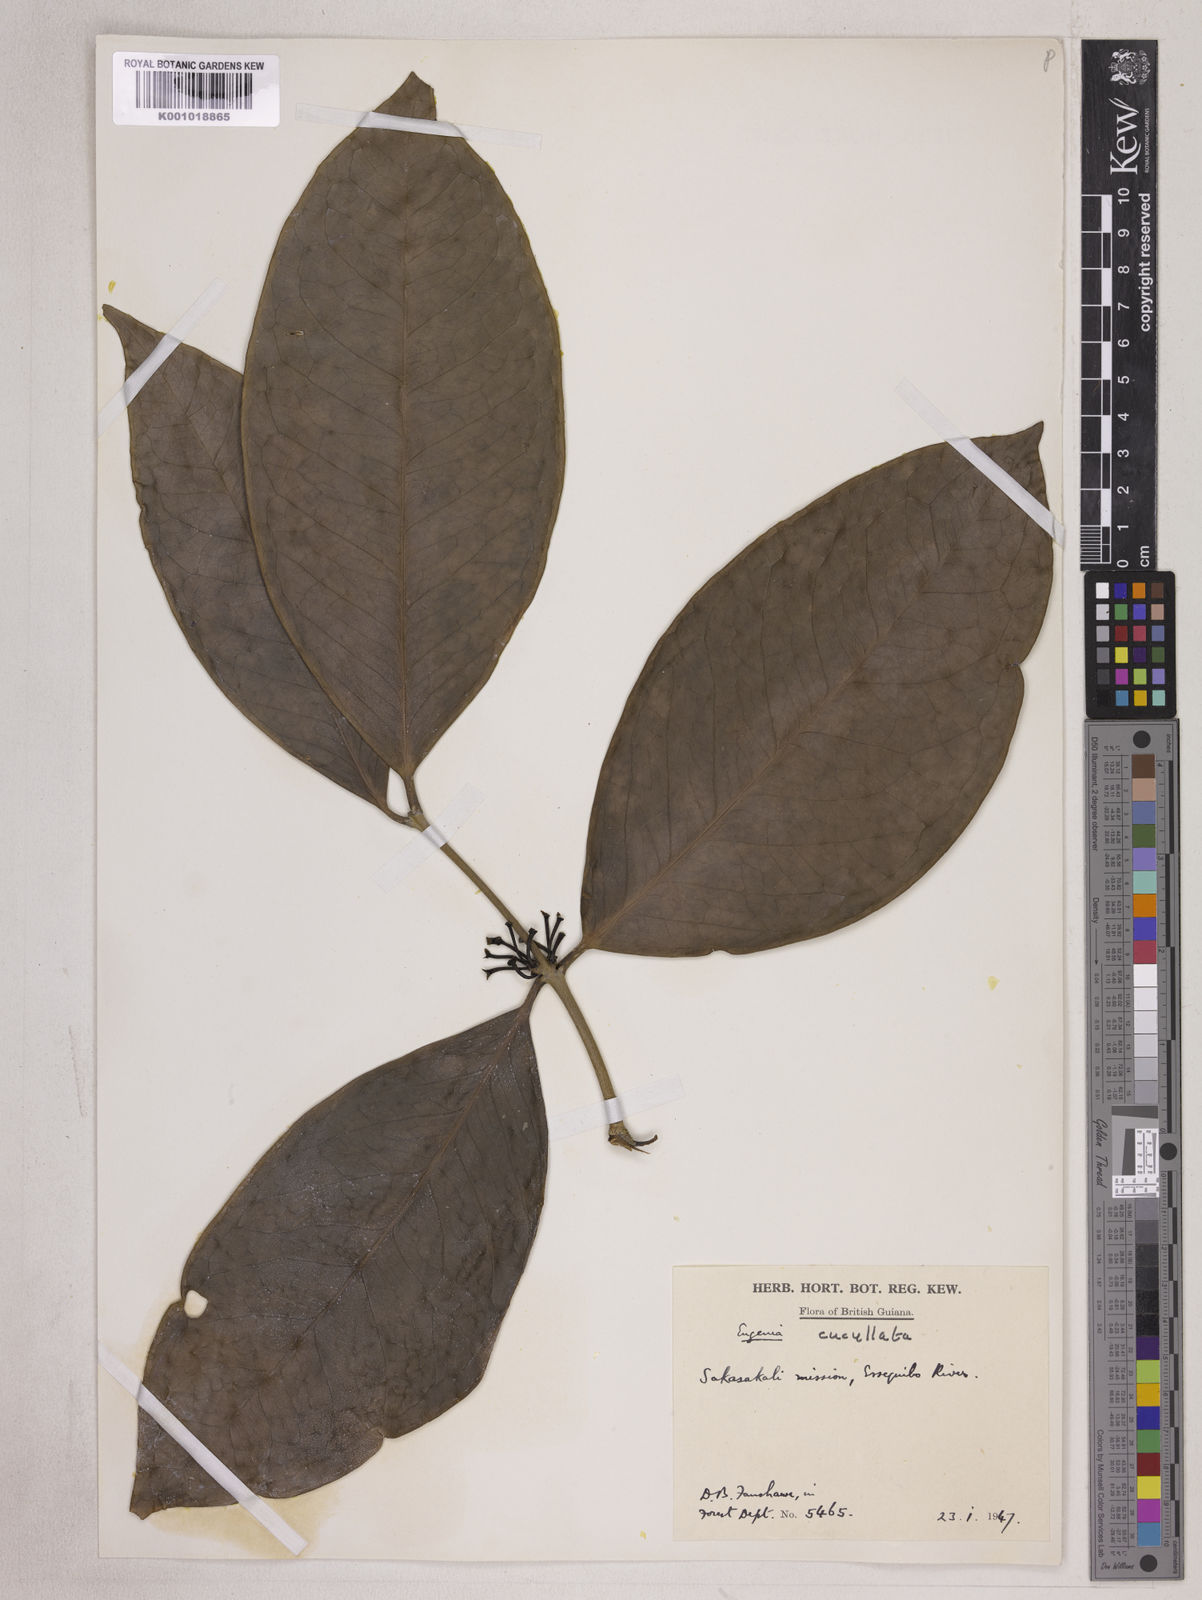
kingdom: Plantae
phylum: Tracheophyta
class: Magnoliopsida
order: Myrtales
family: Myrtaceae
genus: Eugenia
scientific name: Eugenia cucullata
